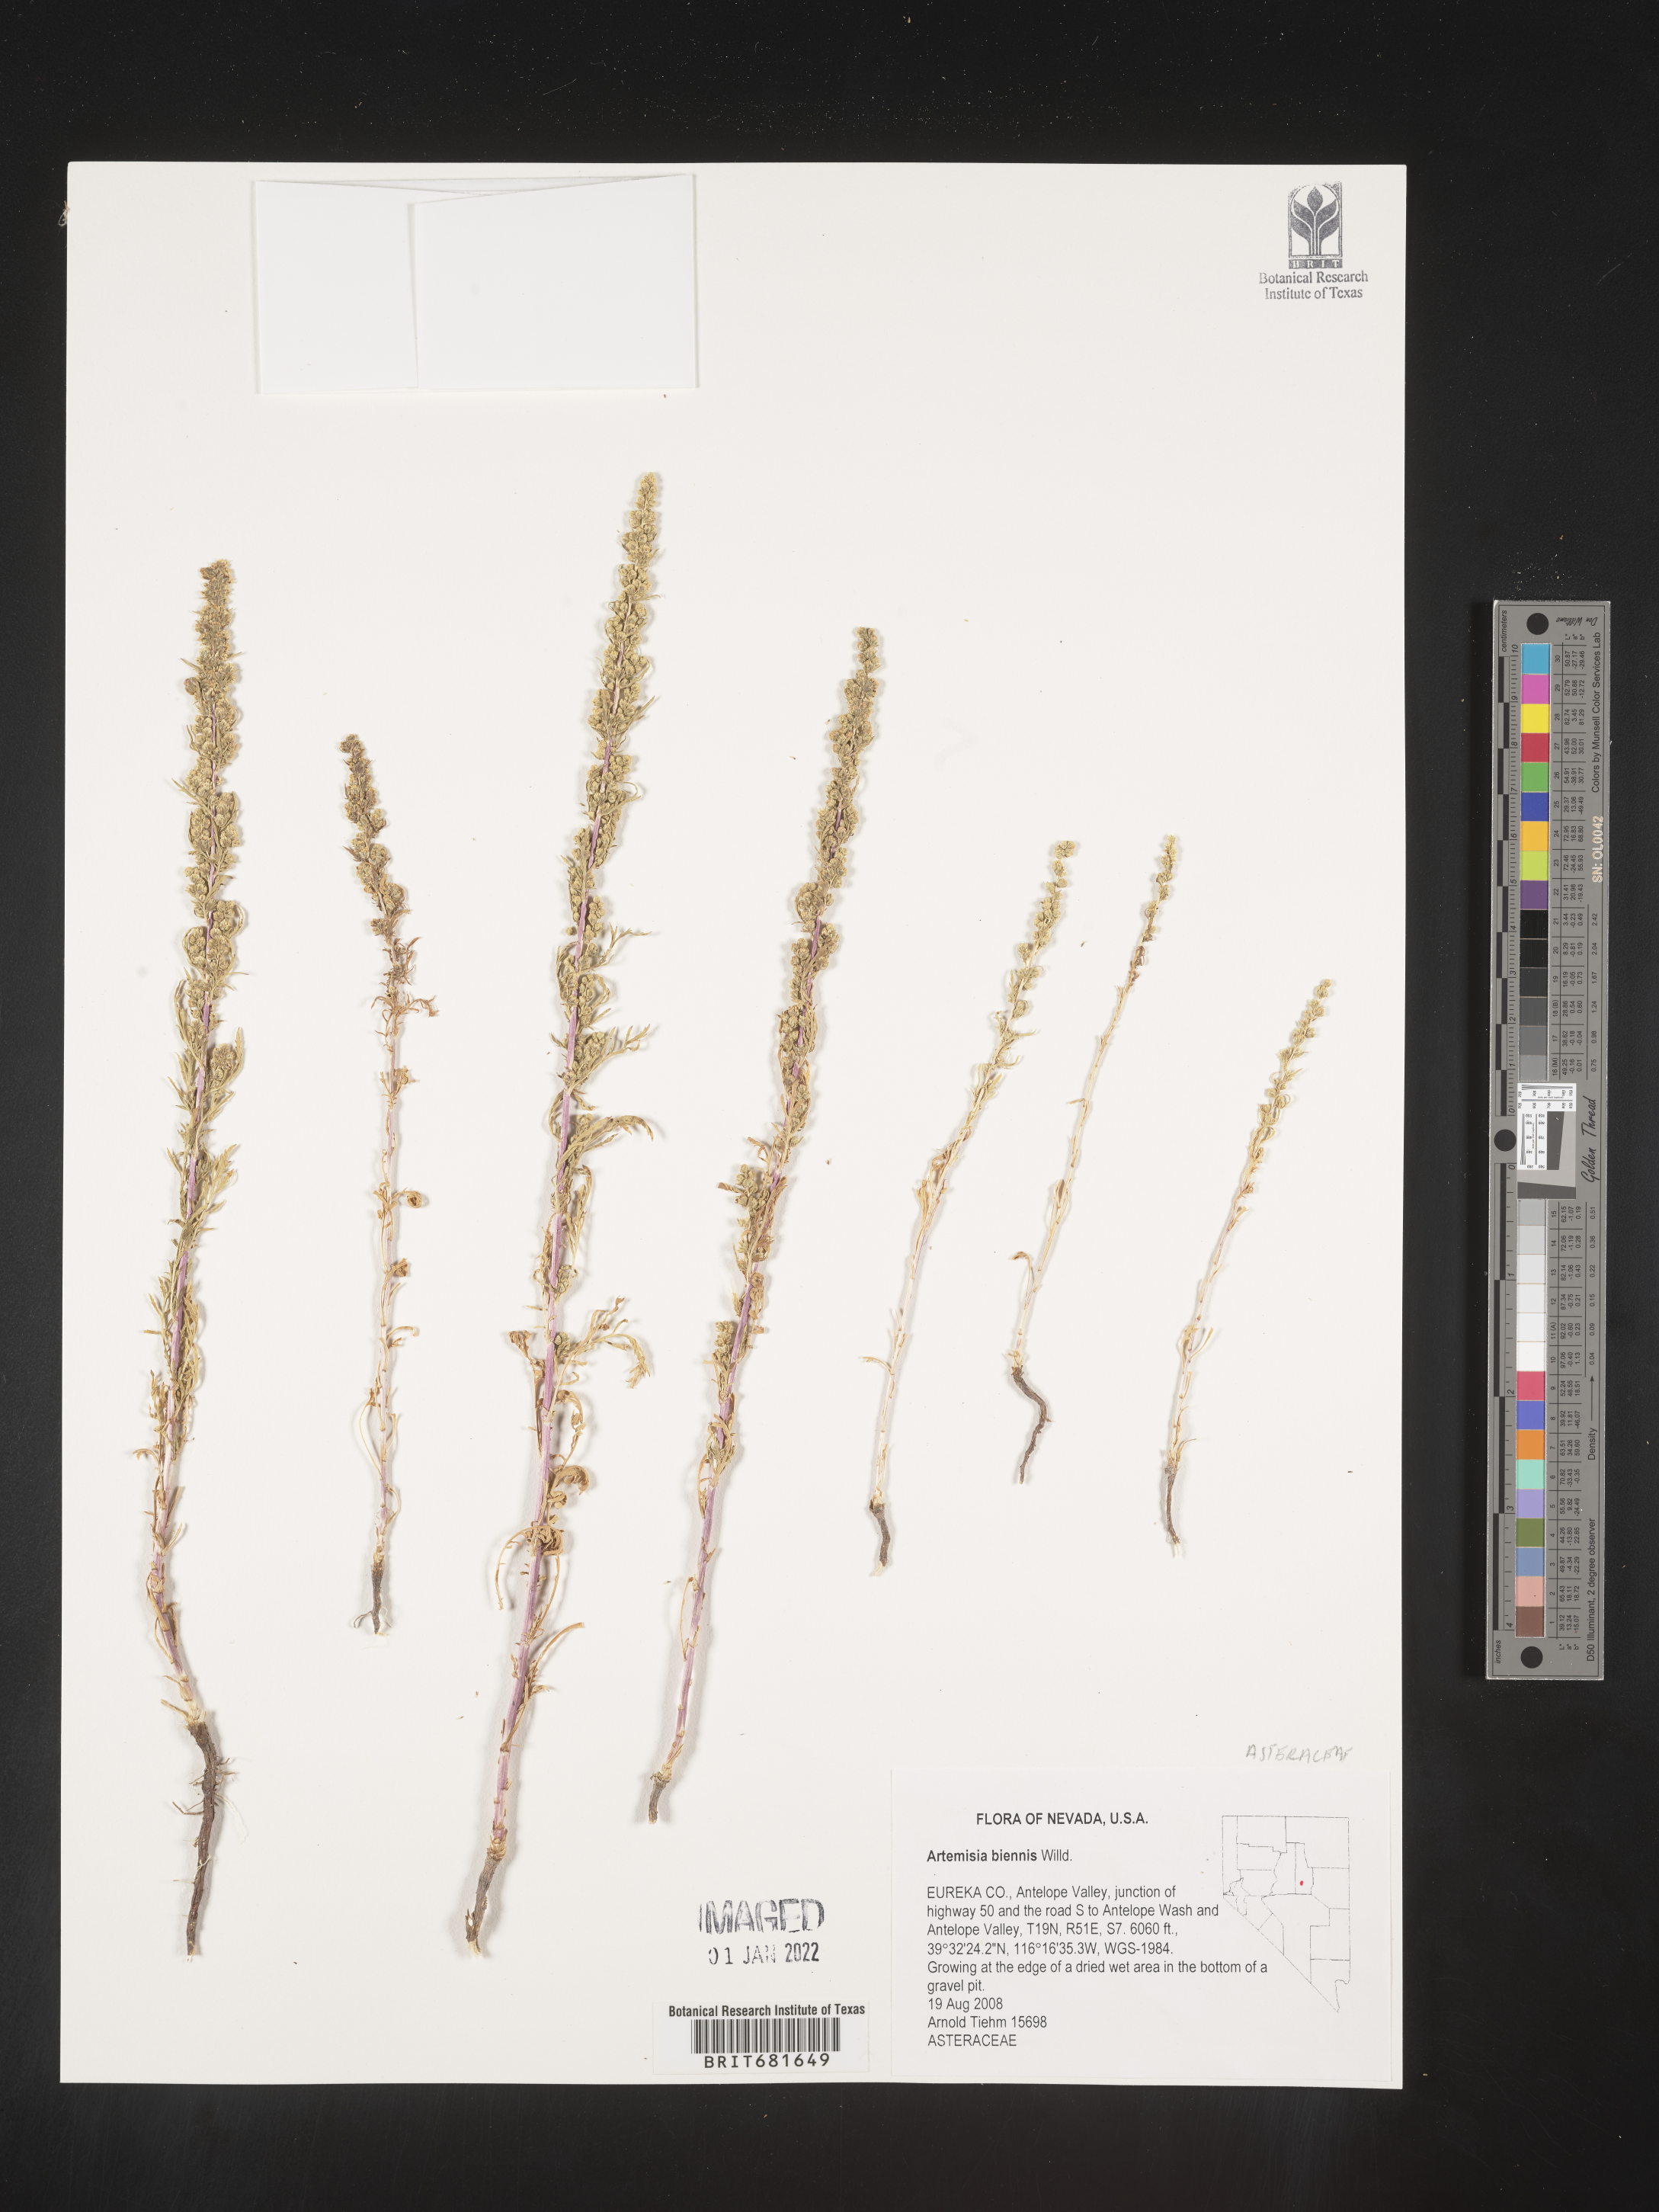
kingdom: Plantae
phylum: Tracheophyta
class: Magnoliopsida
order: Asterales
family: Asteraceae
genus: Artemisia
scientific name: Artemisia biennis
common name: Biennial wormwood
